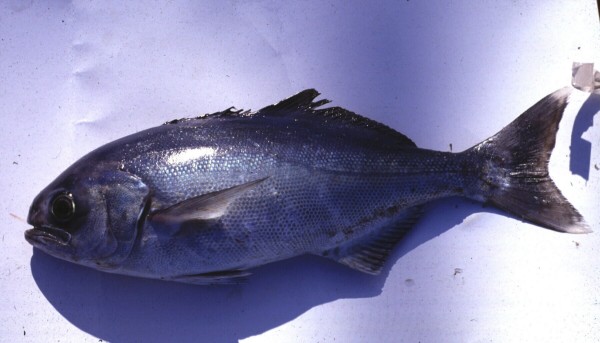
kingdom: Animalia
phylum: Chordata
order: Perciformes
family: Centrolophidae
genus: Hyperoglyphe
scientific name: Hyperoglyphe antarctica
